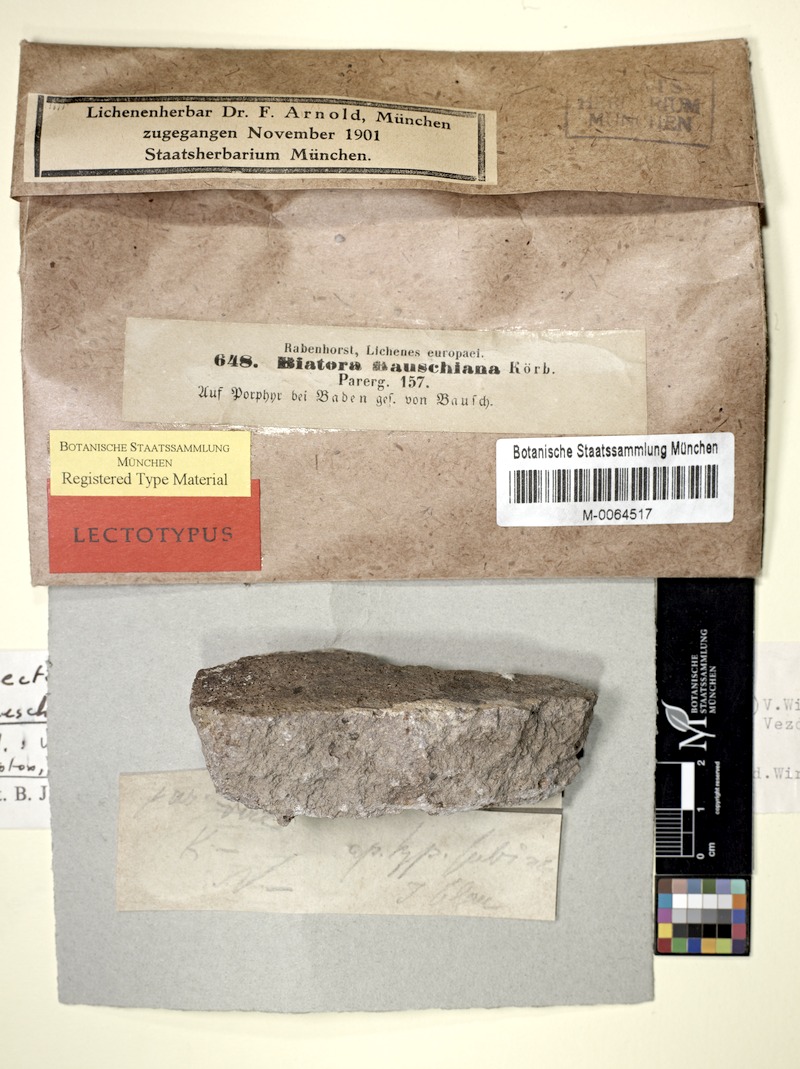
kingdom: Fungi
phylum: Ascomycota
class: Lecanoromycetes
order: Lecanorales
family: Psoraceae
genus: Brianaria
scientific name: Brianaria bauschiana
